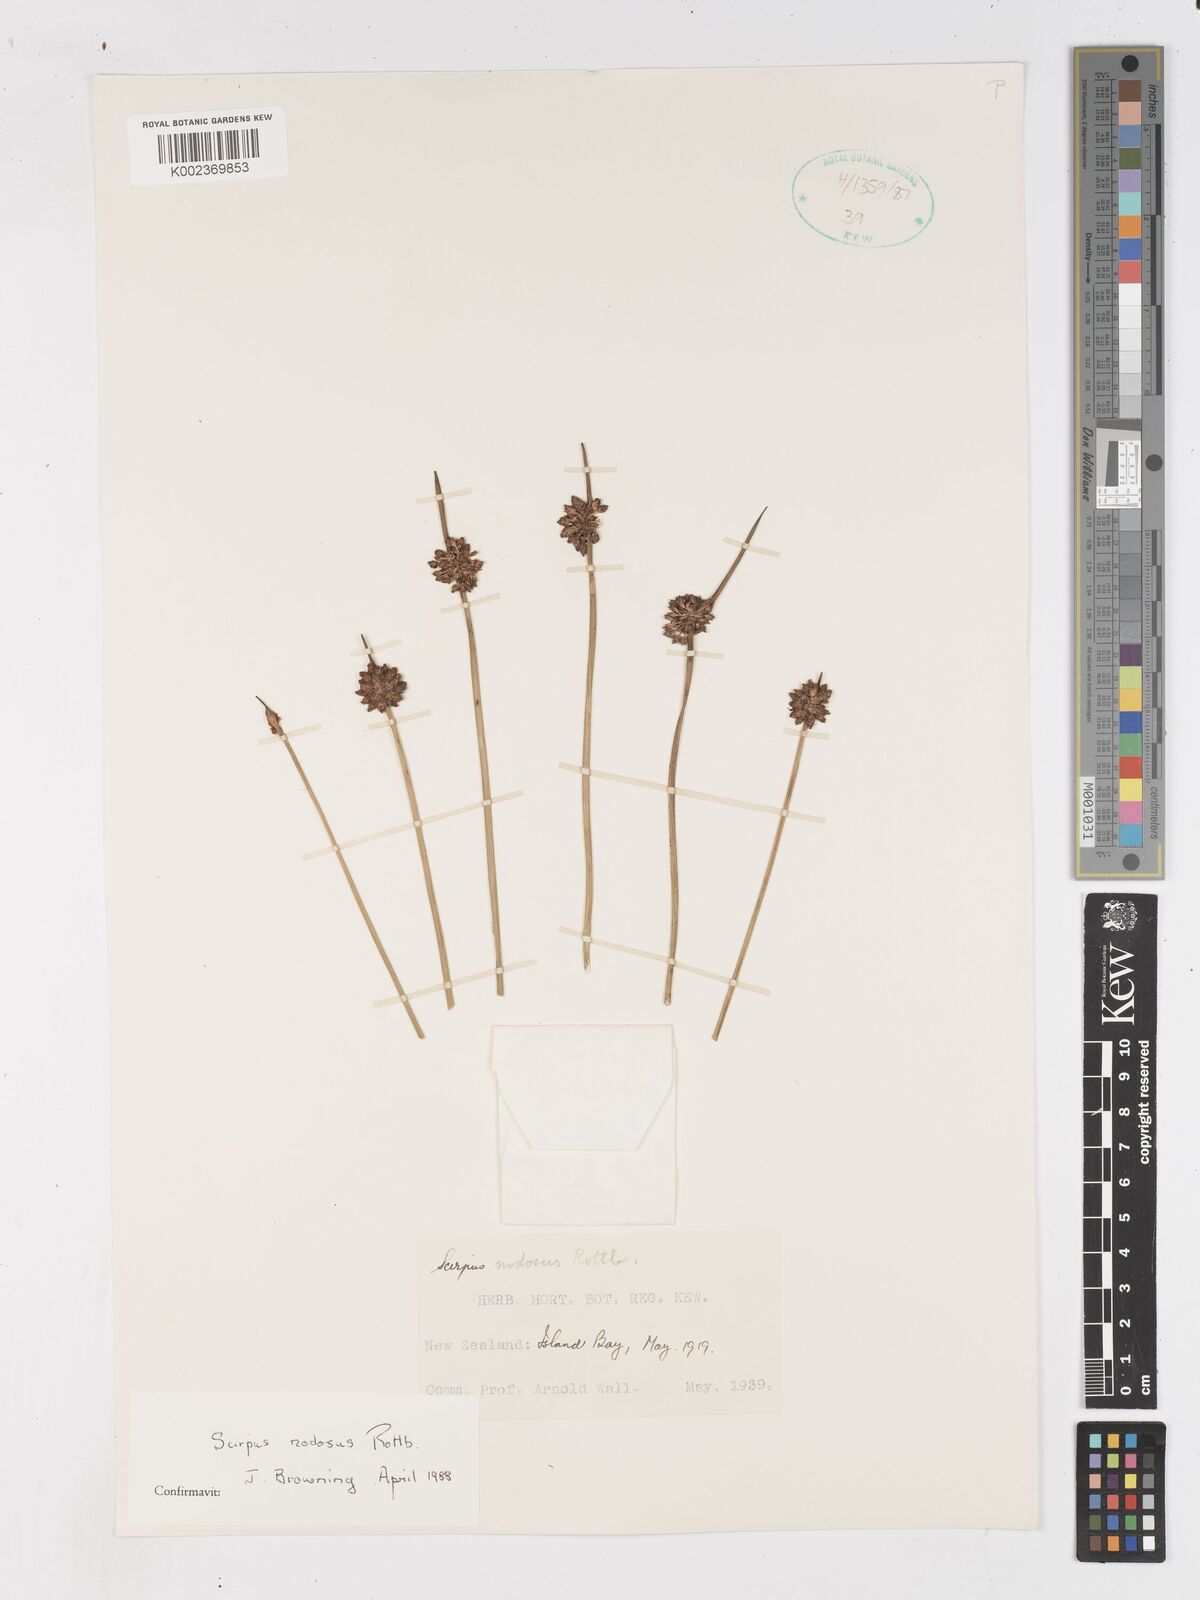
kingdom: Plantae
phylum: Tracheophyta
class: Liliopsida
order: Poales
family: Cyperaceae
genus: Ficinia
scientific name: Ficinia nodosa
